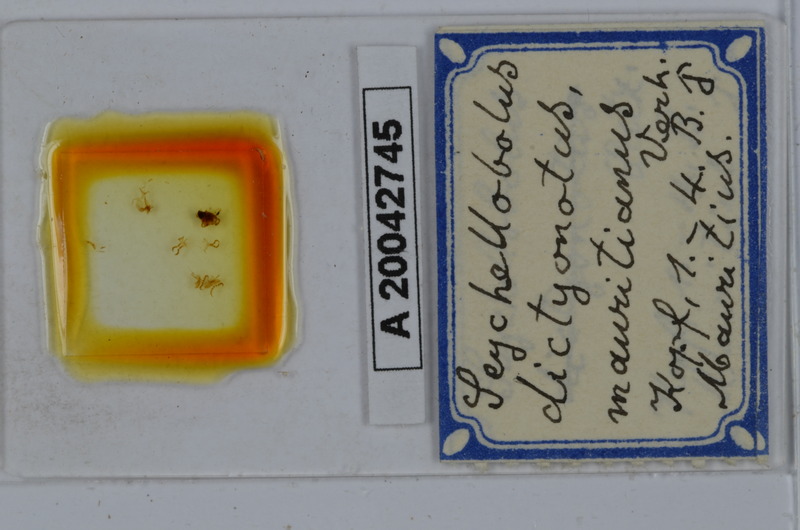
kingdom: Animalia
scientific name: Animalia
